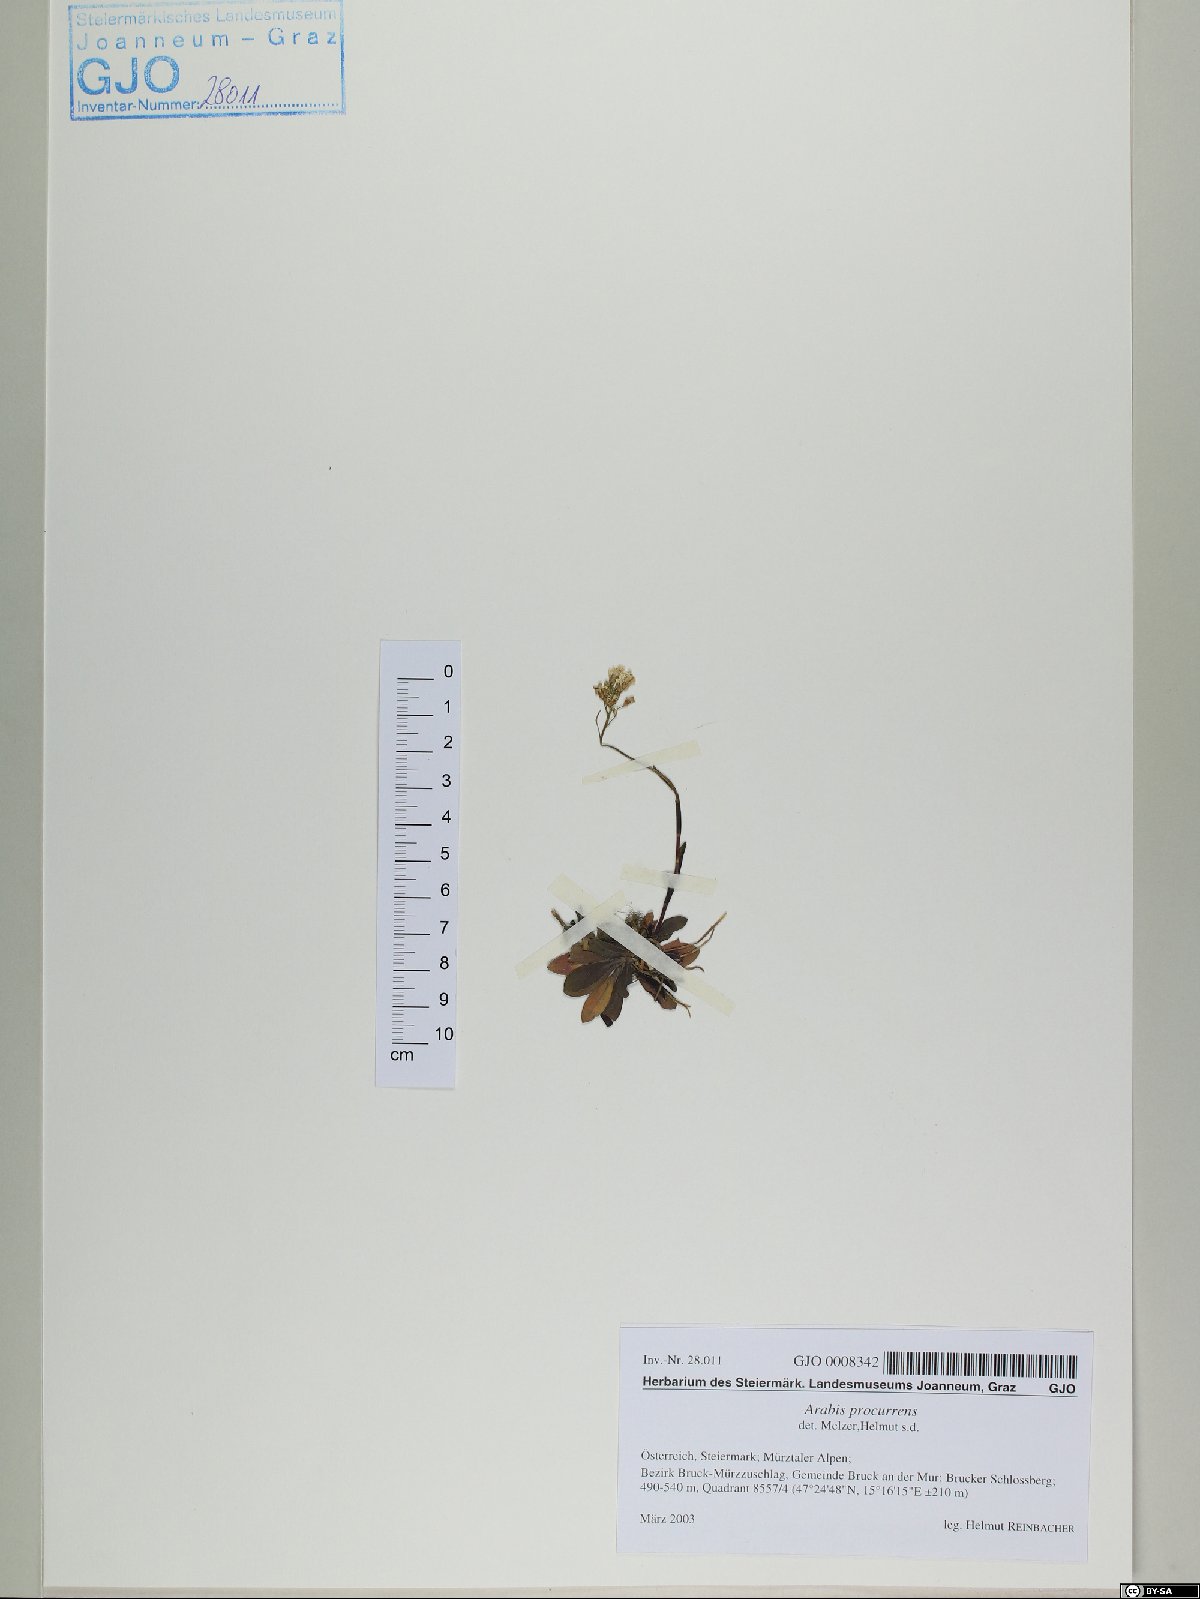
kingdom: Plantae
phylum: Tracheophyta
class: Magnoliopsida
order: Brassicales
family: Brassicaceae
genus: Arabis
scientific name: Arabis procurrens
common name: Running rockcress
